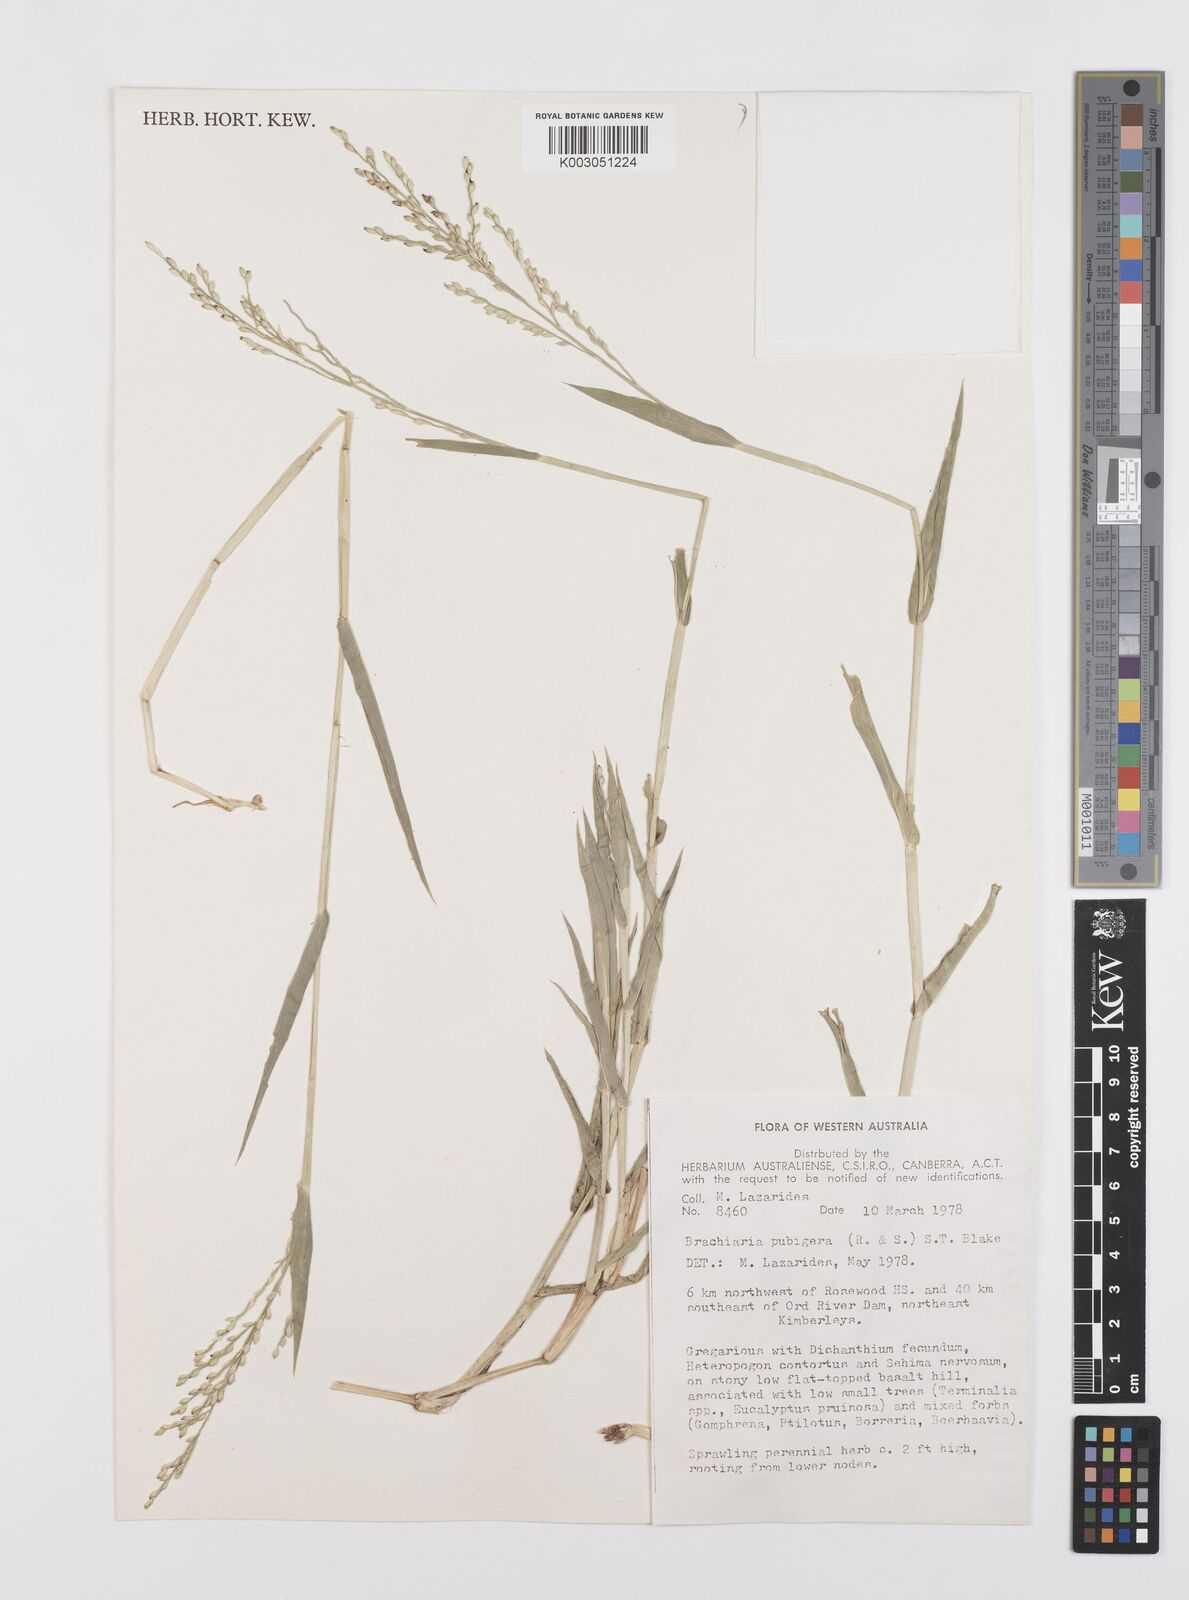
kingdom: Plantae
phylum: Tracheophyta
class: Liliopsida
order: Poales
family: Poaceae
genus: Urochloa
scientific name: Urochloa praetervisa
